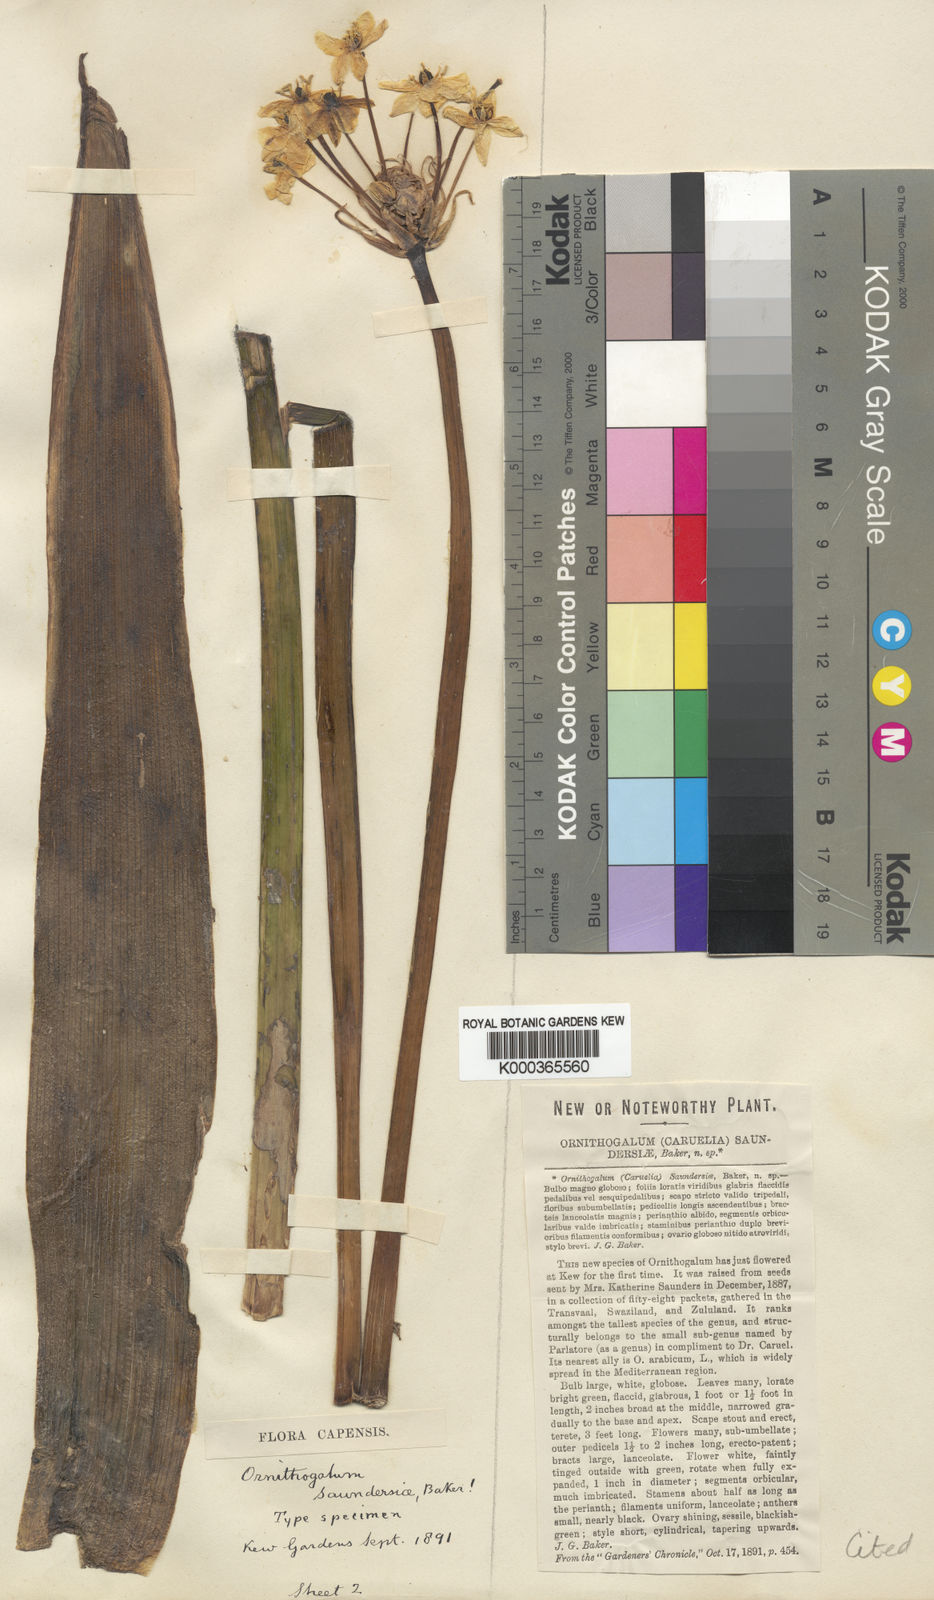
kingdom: Plantae
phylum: Tracheophyta
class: Liliopsida
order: Asparagales
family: Asparagaceae
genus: Ornithogalum
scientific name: Ornithogalum saundersiae
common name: Giant chincherinchee
